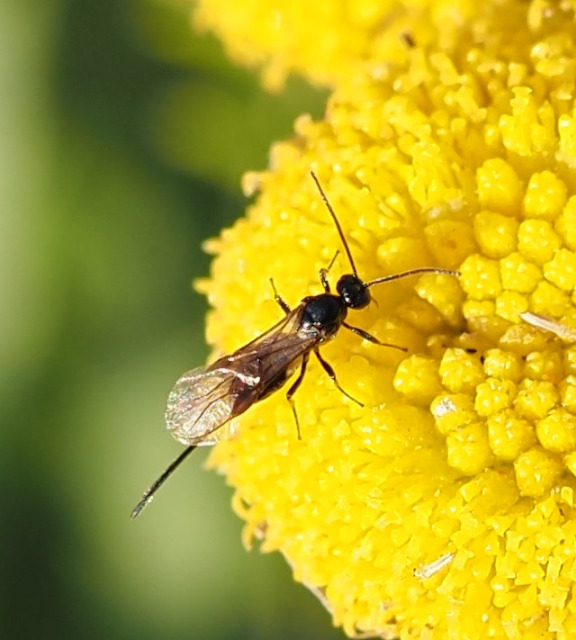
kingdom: Animalia
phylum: Arthropoda
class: Insecta
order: Hymenoptera
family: Braconidae
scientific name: Braconidae
